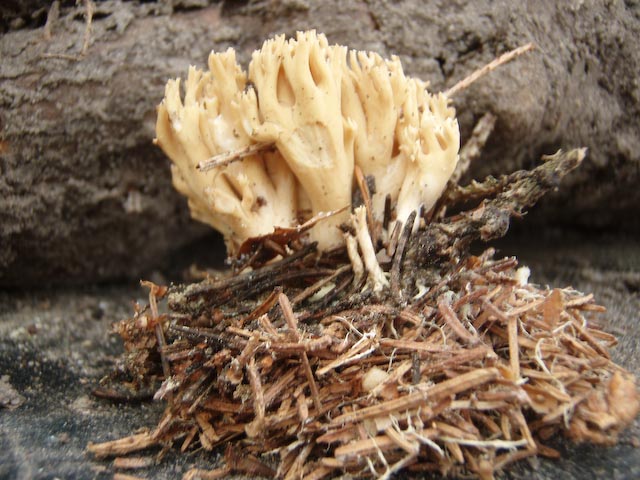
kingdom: Fungi
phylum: Basidiomycota
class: Agaricomycetes
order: Gomphales
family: Gomphaceae
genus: Phaeoclavulina
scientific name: Phaeoclavulina eumorpha
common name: gran-koralsvamp
